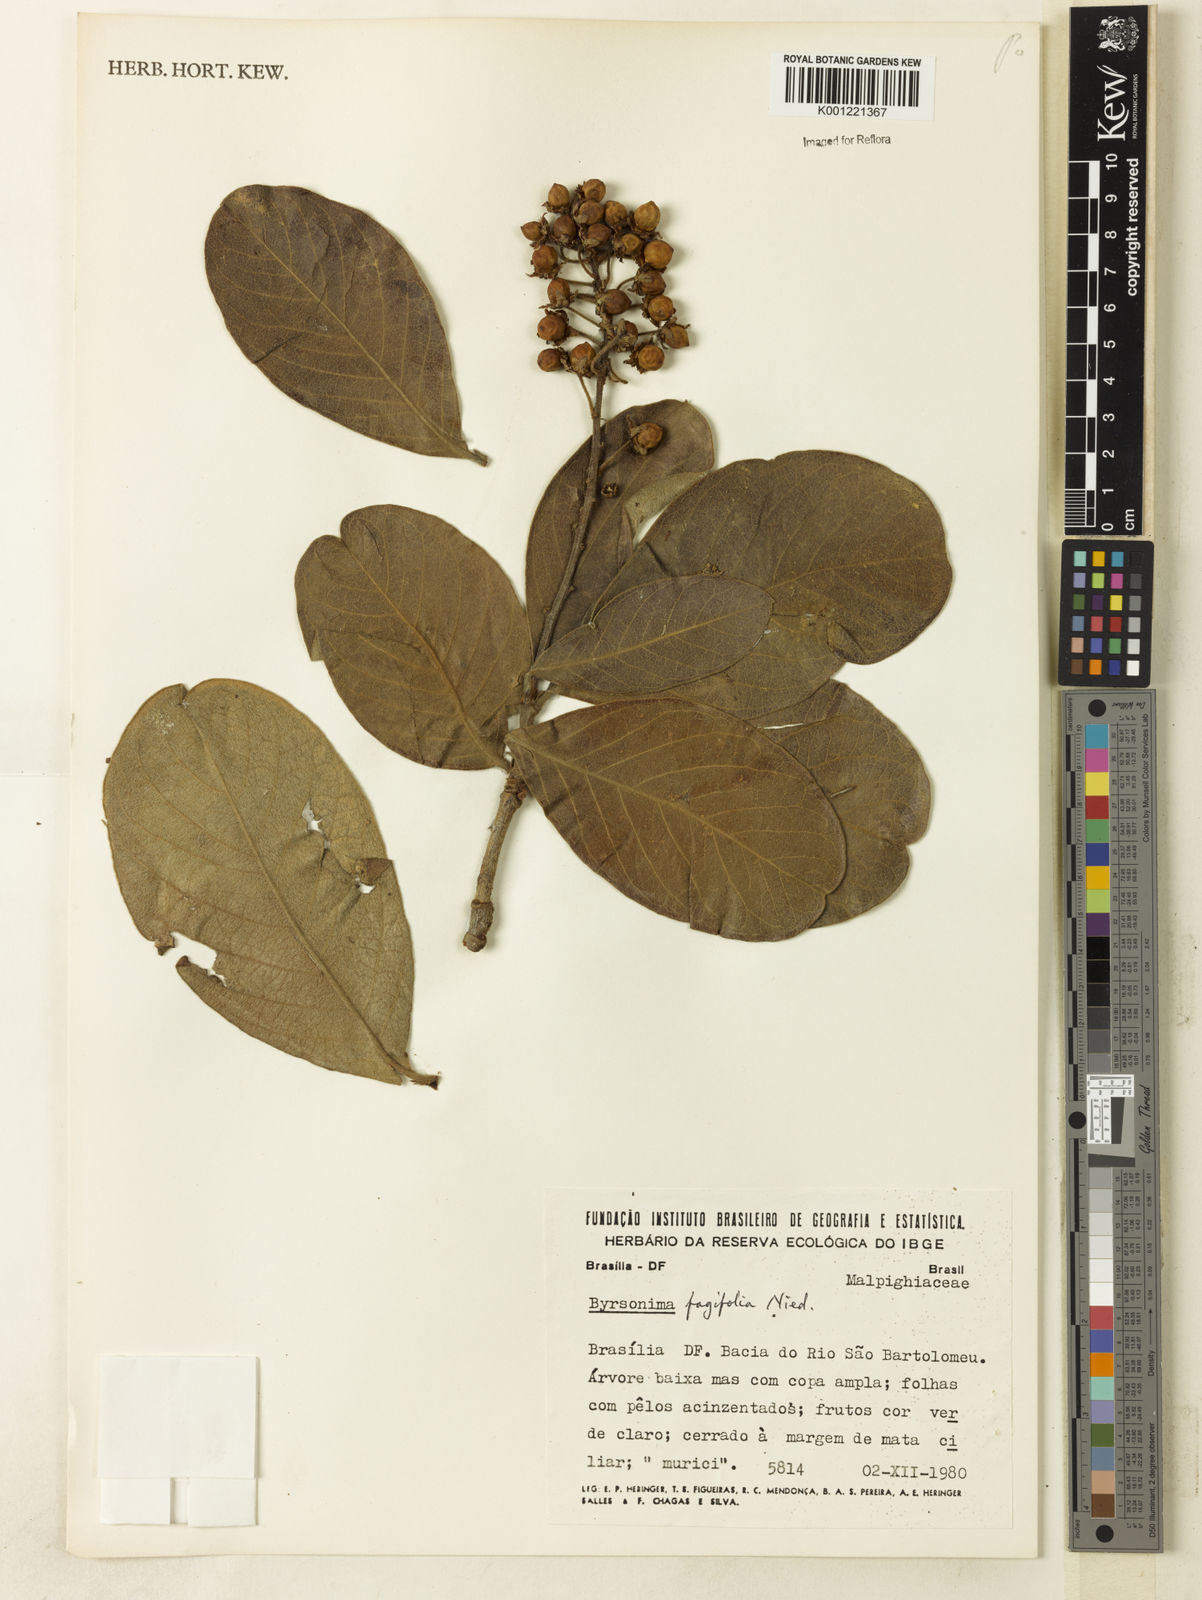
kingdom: Plantae
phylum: Tracheophyta
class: Magnoliopsida
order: Malpighiales
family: Malpighiaceae
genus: Byrsonima
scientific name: Byrsonima crassifolia
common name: Golden spoon
